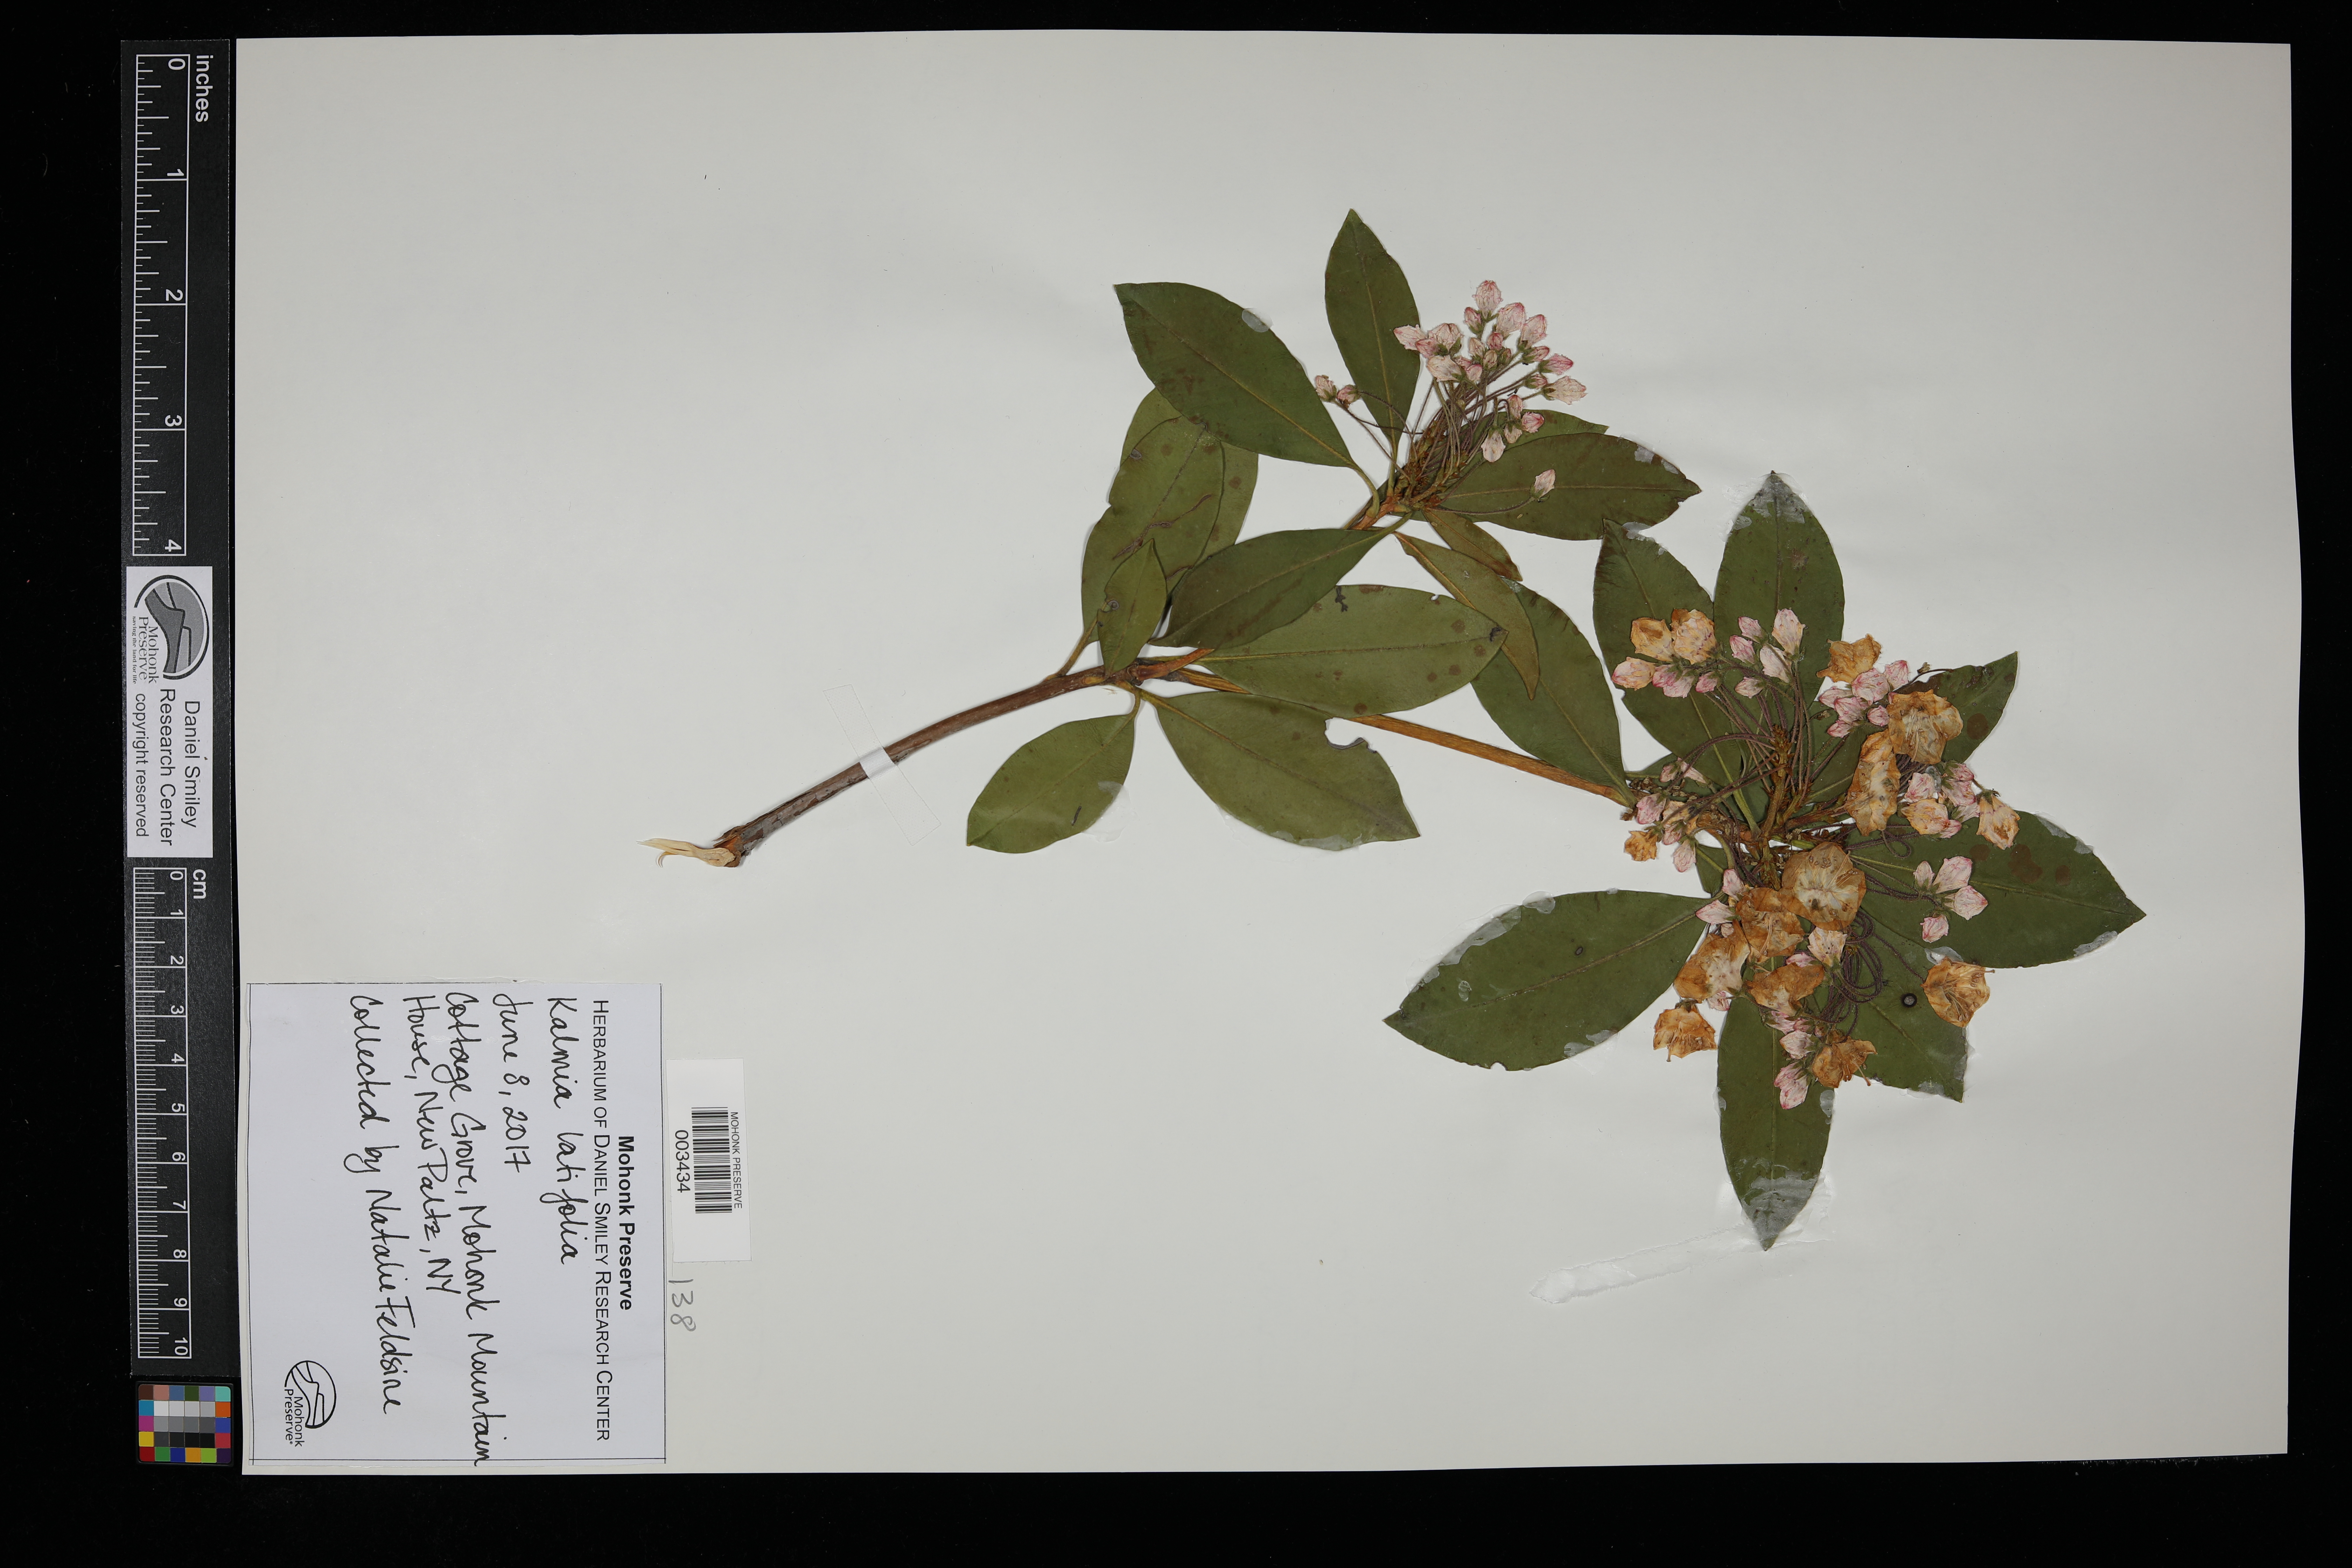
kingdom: Plantae
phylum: Tracheophyta
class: Magnoliopsida
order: Ericales
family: Ericaceae
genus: Kalmia
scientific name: Kalmia latifolia
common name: Mountain-laurel
